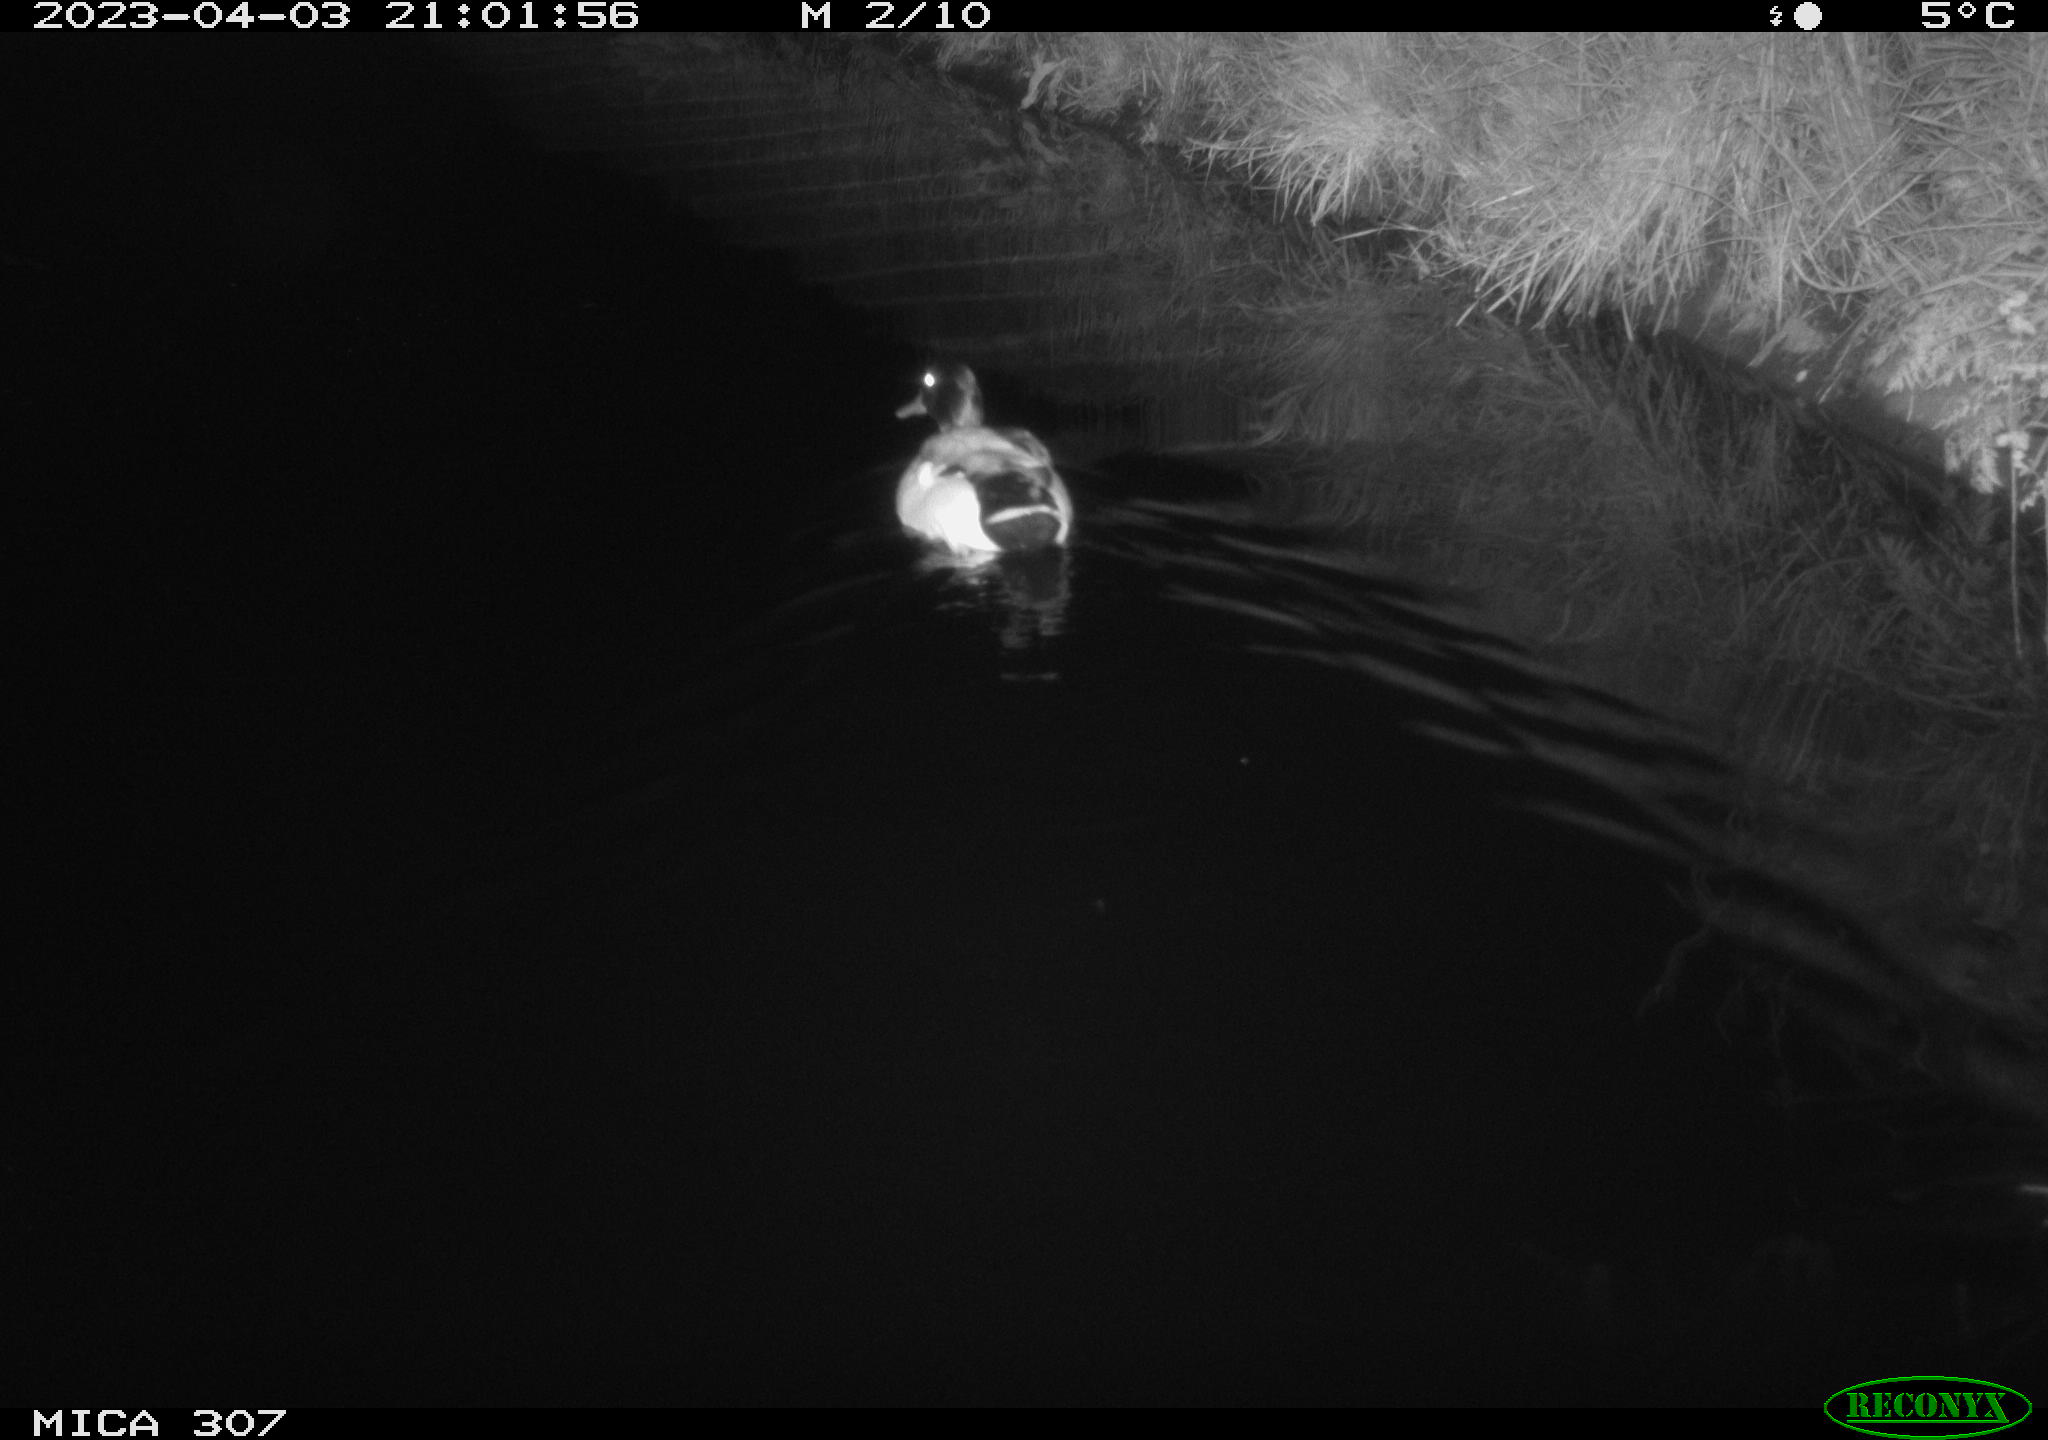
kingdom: Animalia
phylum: Chordata
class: Aves
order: Anseriformes
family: Anatidae
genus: Anas
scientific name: Anas
